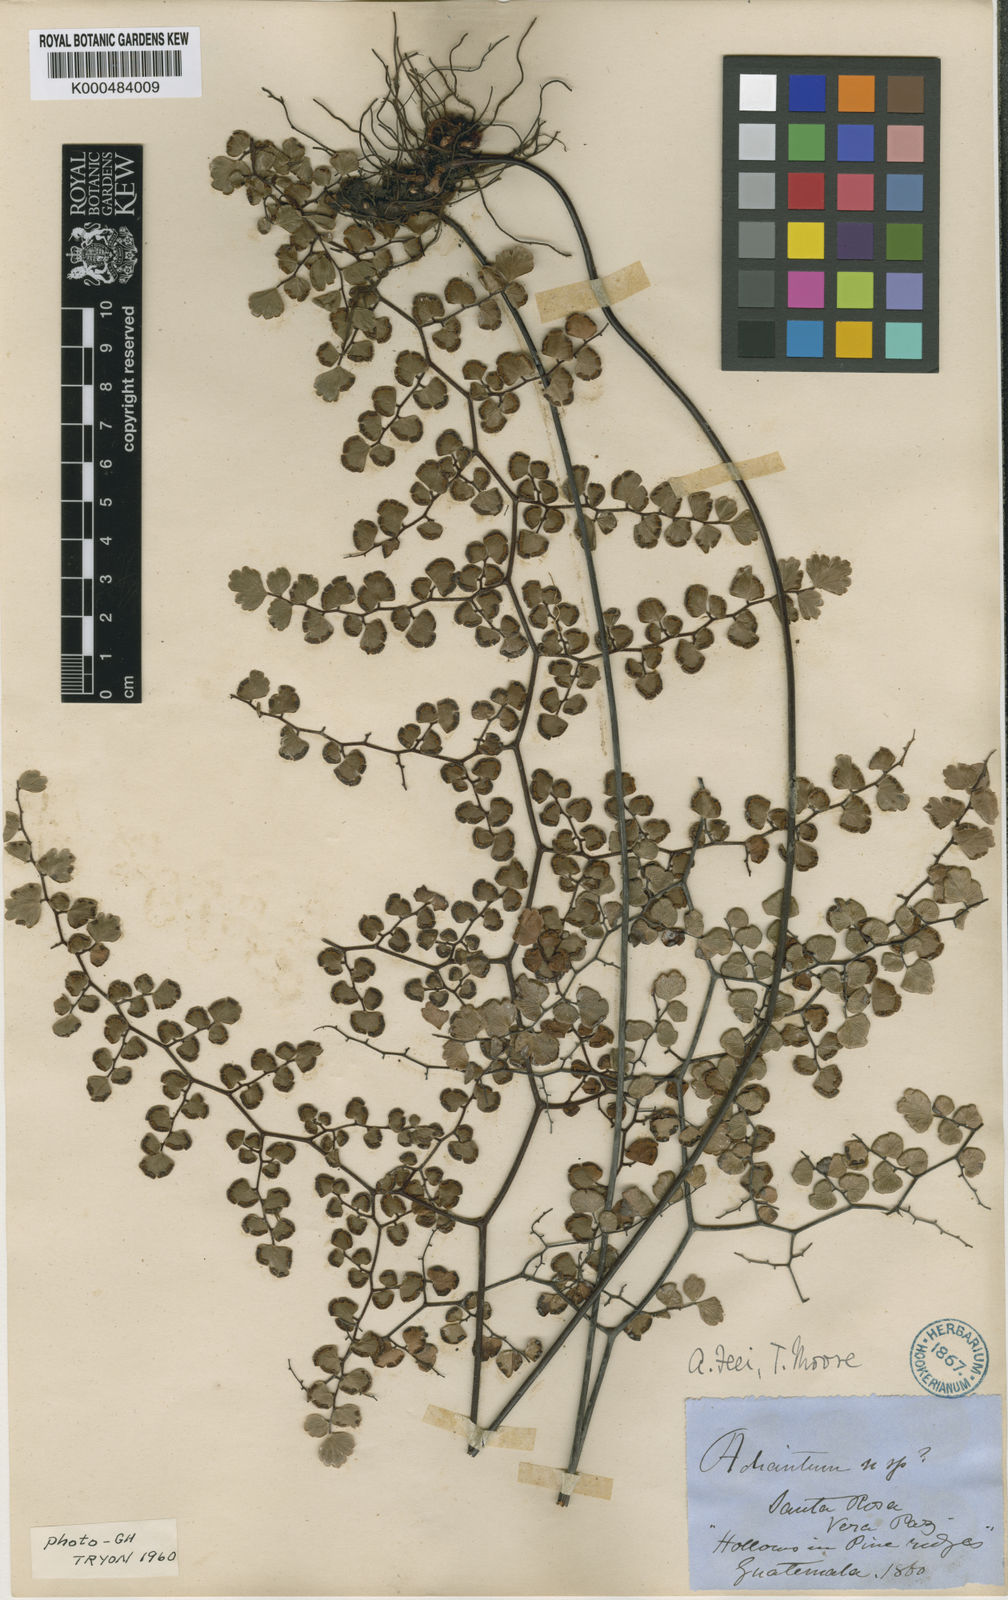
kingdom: Plantae
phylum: Tracheophyta
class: Polypodiopsida
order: Polypodiales
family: Pteridaceae
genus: Adiantum
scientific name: Adiantum
